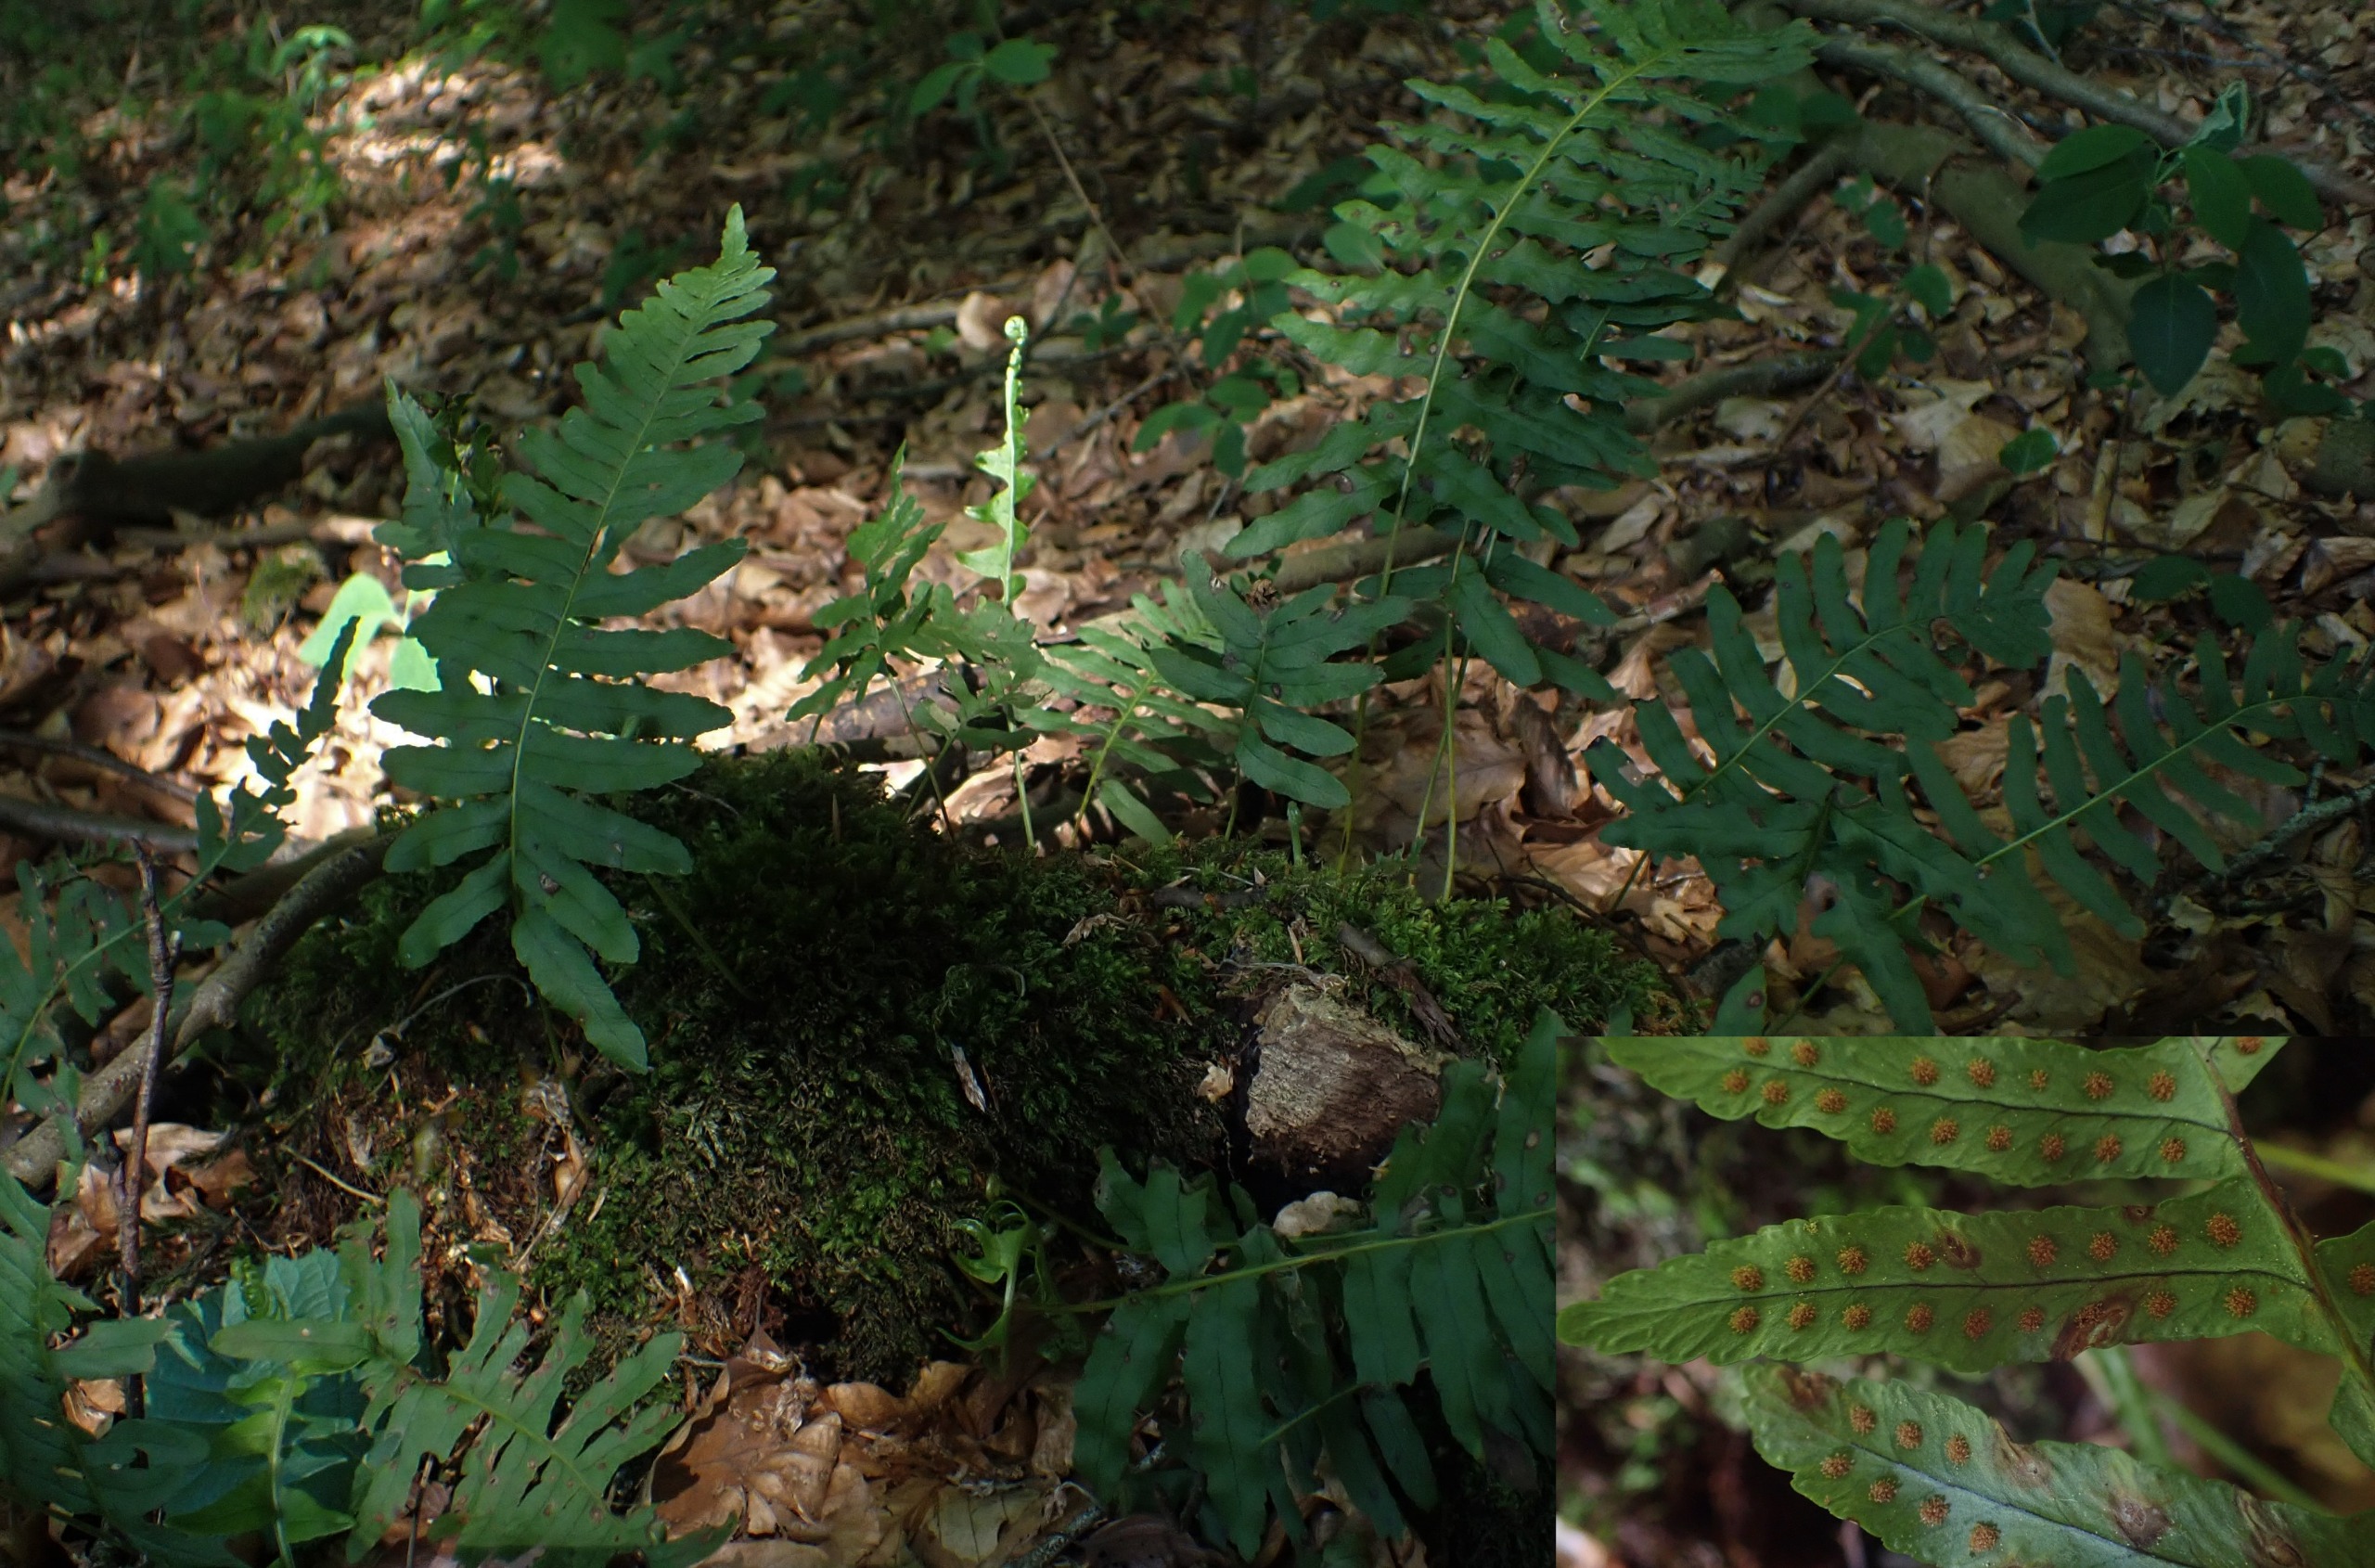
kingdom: Plantae
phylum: Tracheophyta
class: Polypodiopsida
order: Polypodiales
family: Polypodiaceae
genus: Polypodium
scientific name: Polypodium vulgare
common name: Almindelig engelsød
